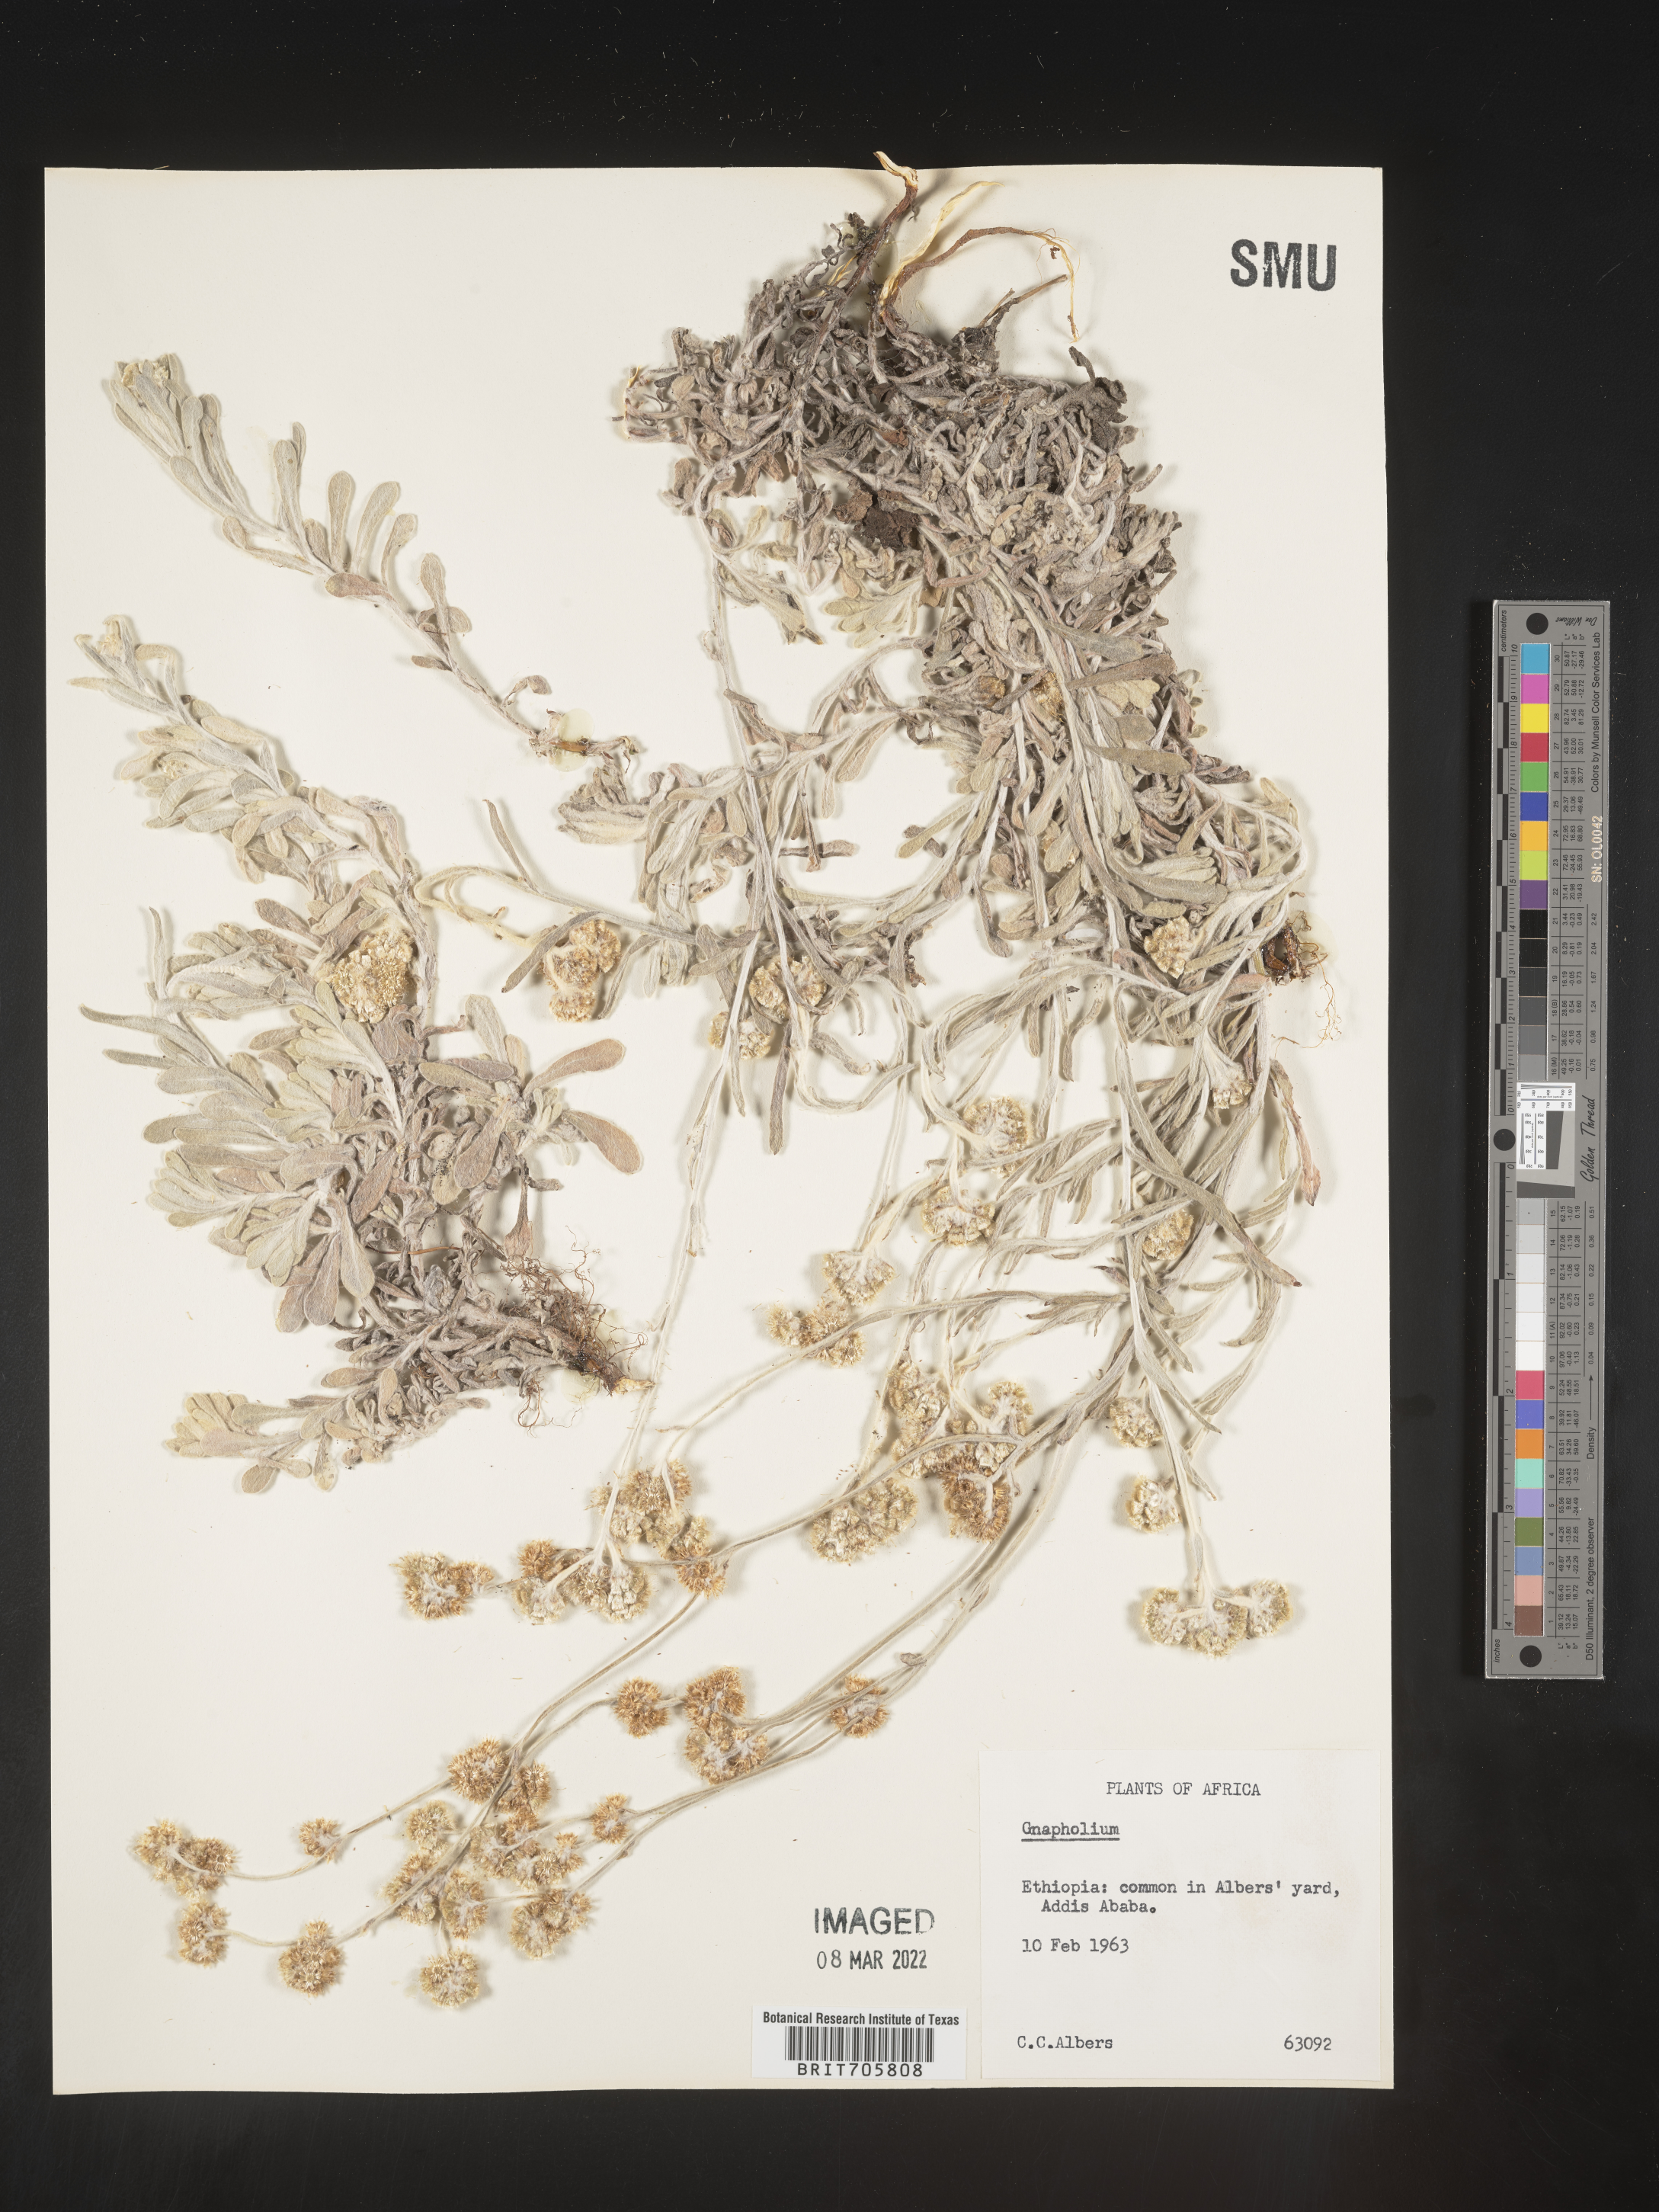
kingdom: Plantae
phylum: Tracheophyta
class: Magnoliopsida
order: Asterales
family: Asteraceae
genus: Pseudognaphalium
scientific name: Pseudognaphalium
